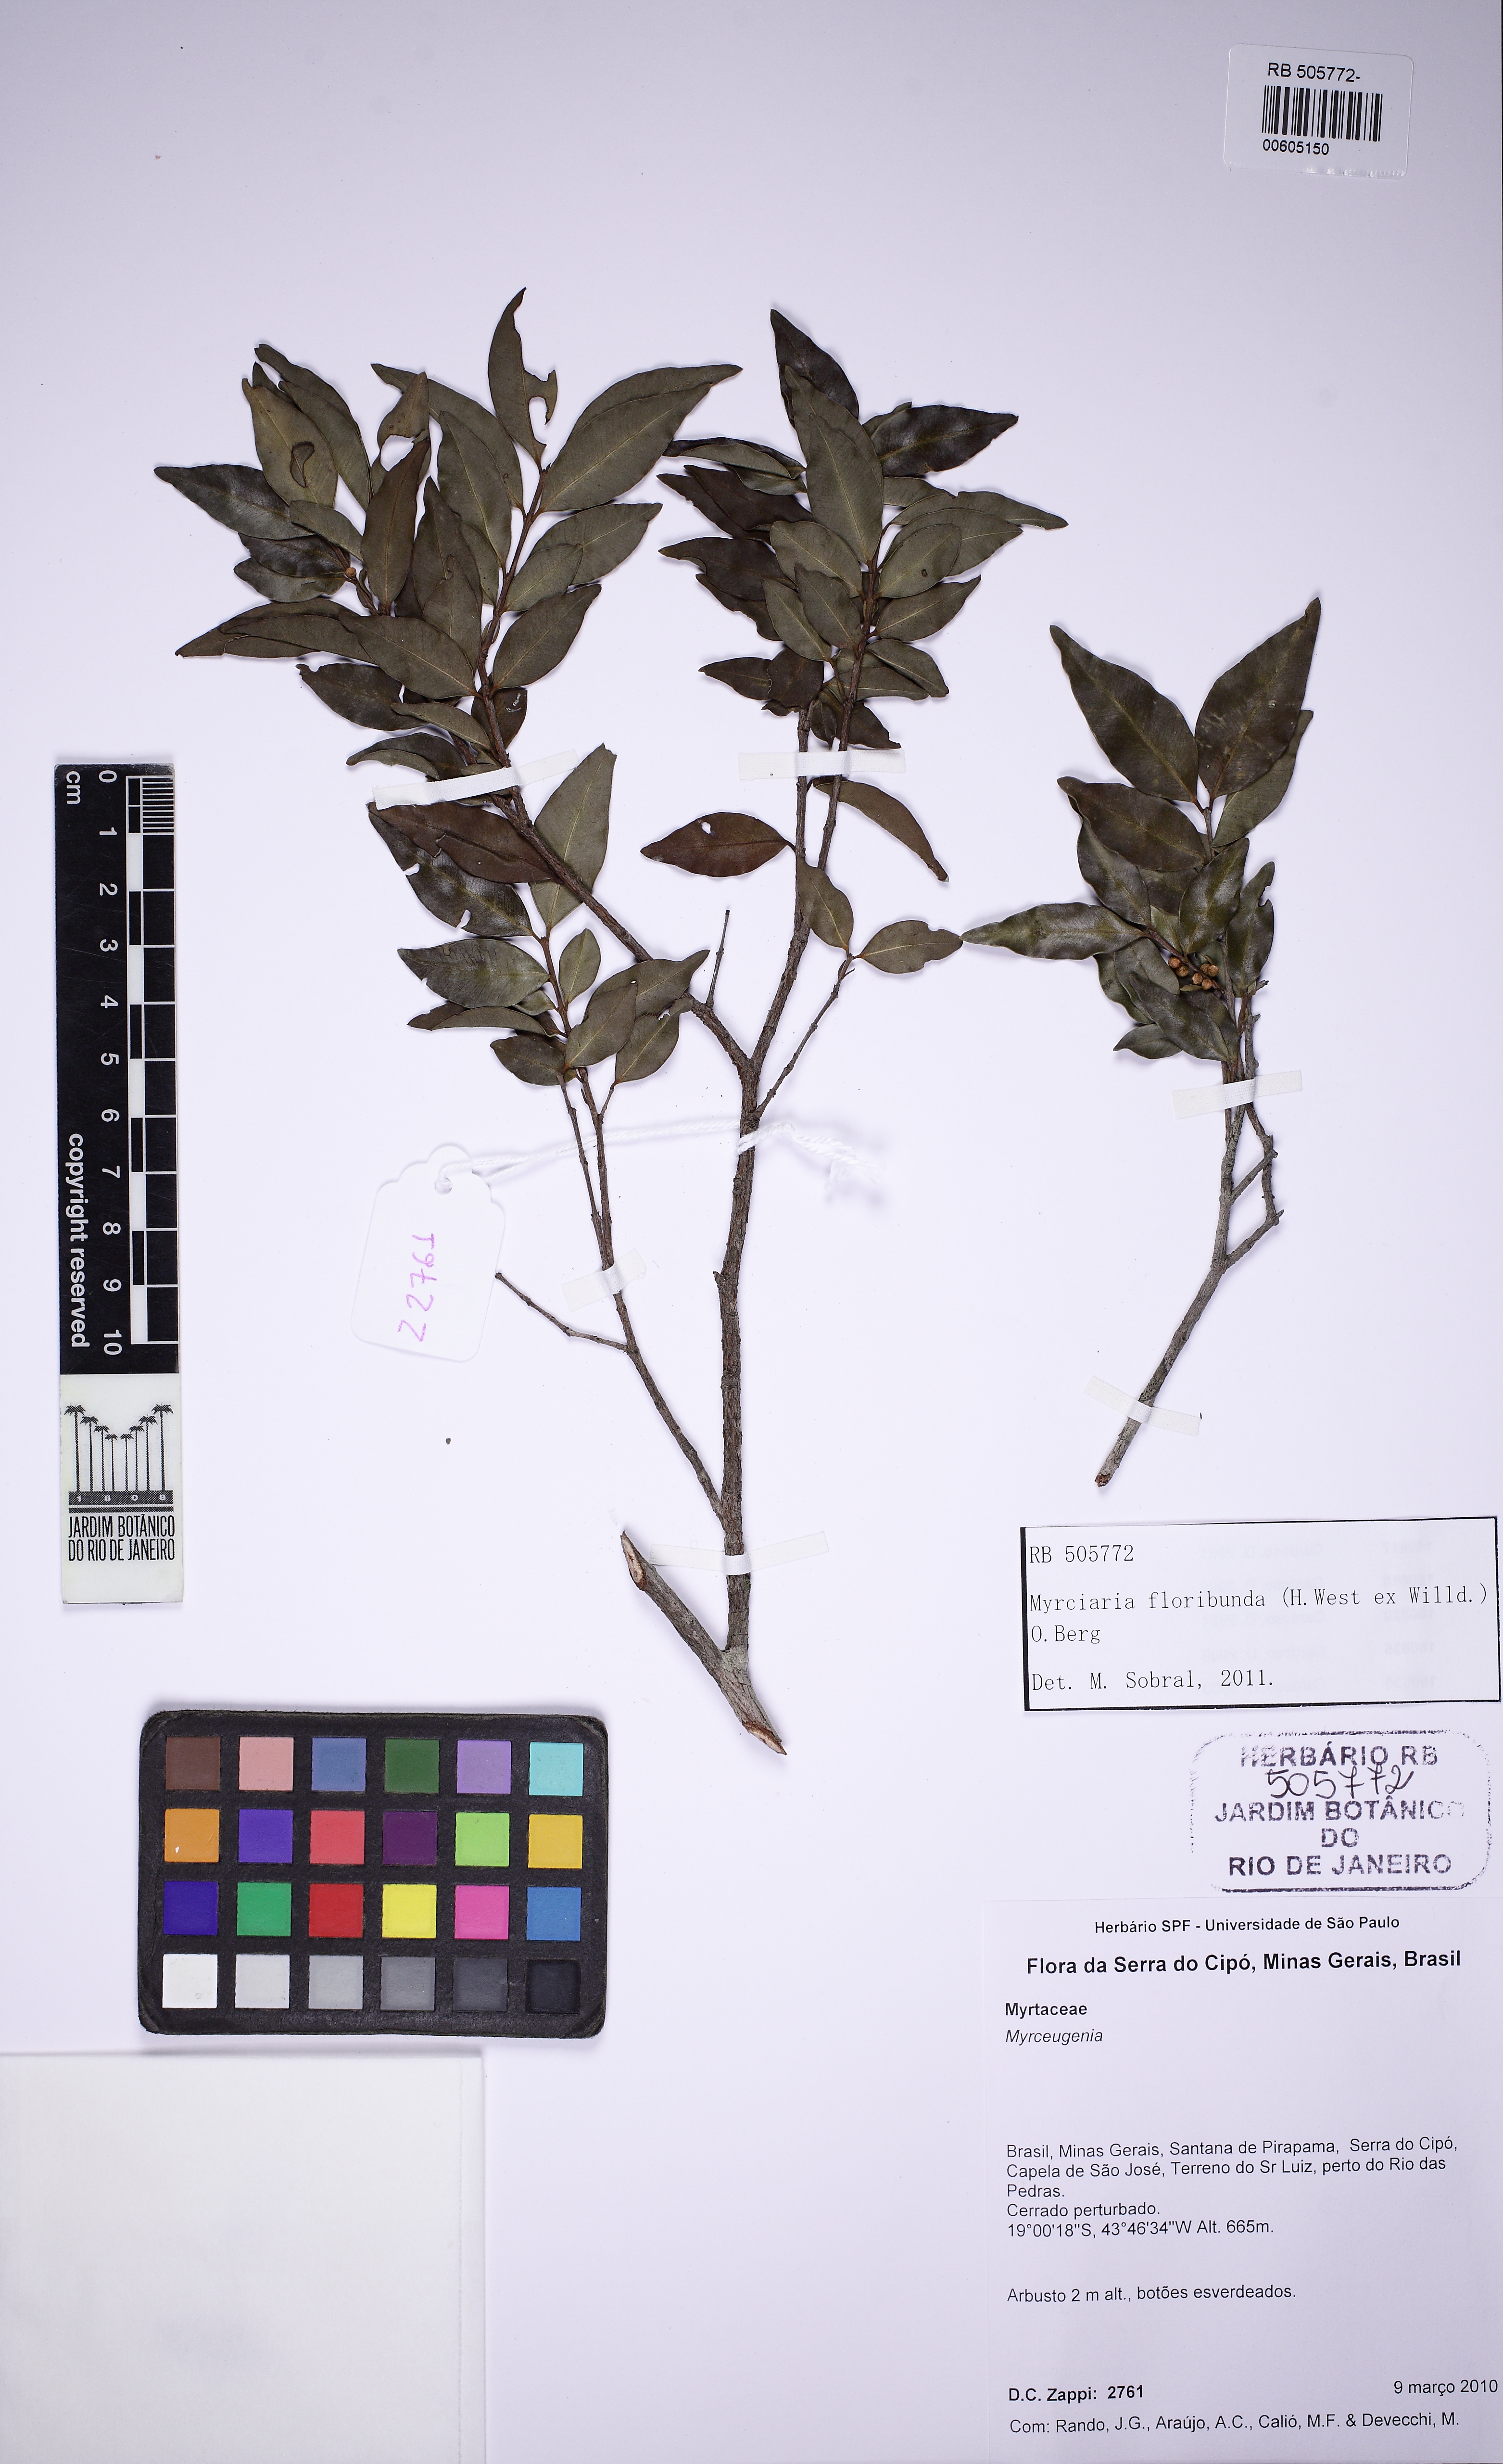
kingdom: Plantae
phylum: Tracheophyta
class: Magnoliopsida
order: Myrtales
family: Myrtaceae
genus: Myrciaria
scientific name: Myrciaria floribunda
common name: Guavaberry
